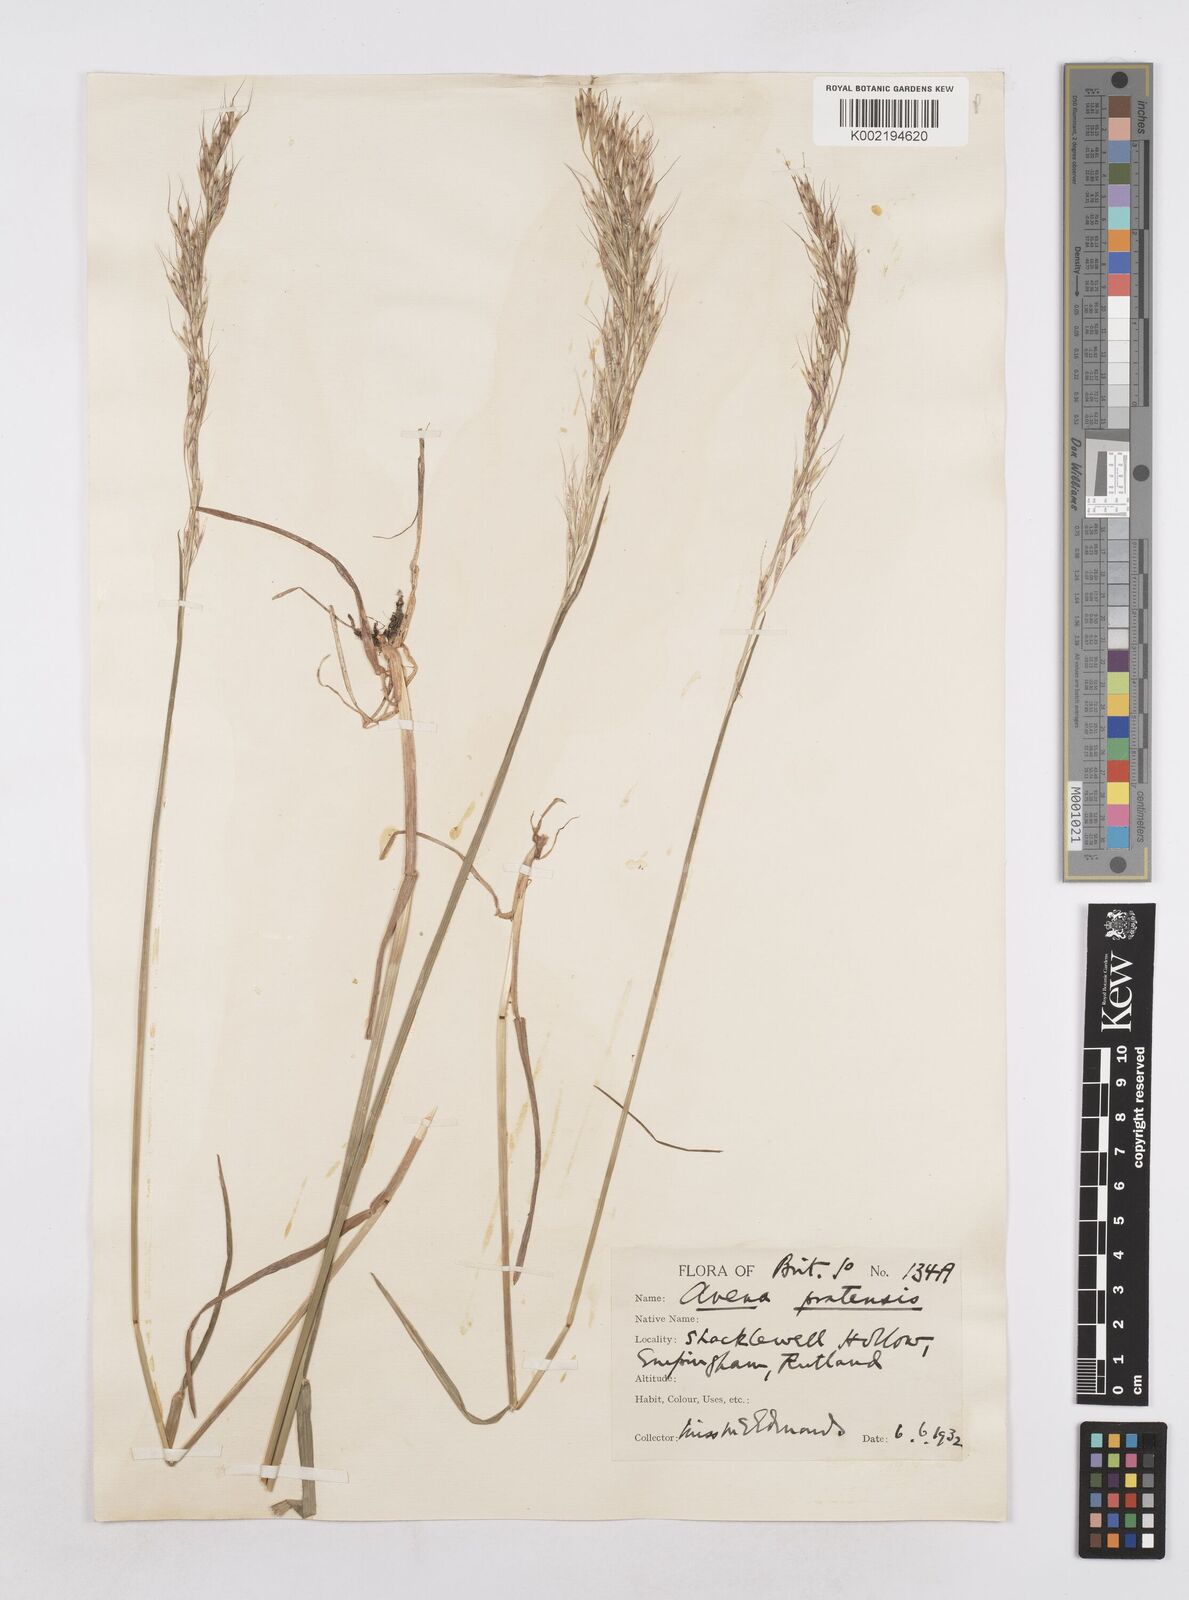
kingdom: Plantae
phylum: Tracheophyta
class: Liliopsida
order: Poales
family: Poaceae
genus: Avenula
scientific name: Avenula pubescens
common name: Downy alpine oatgrass
